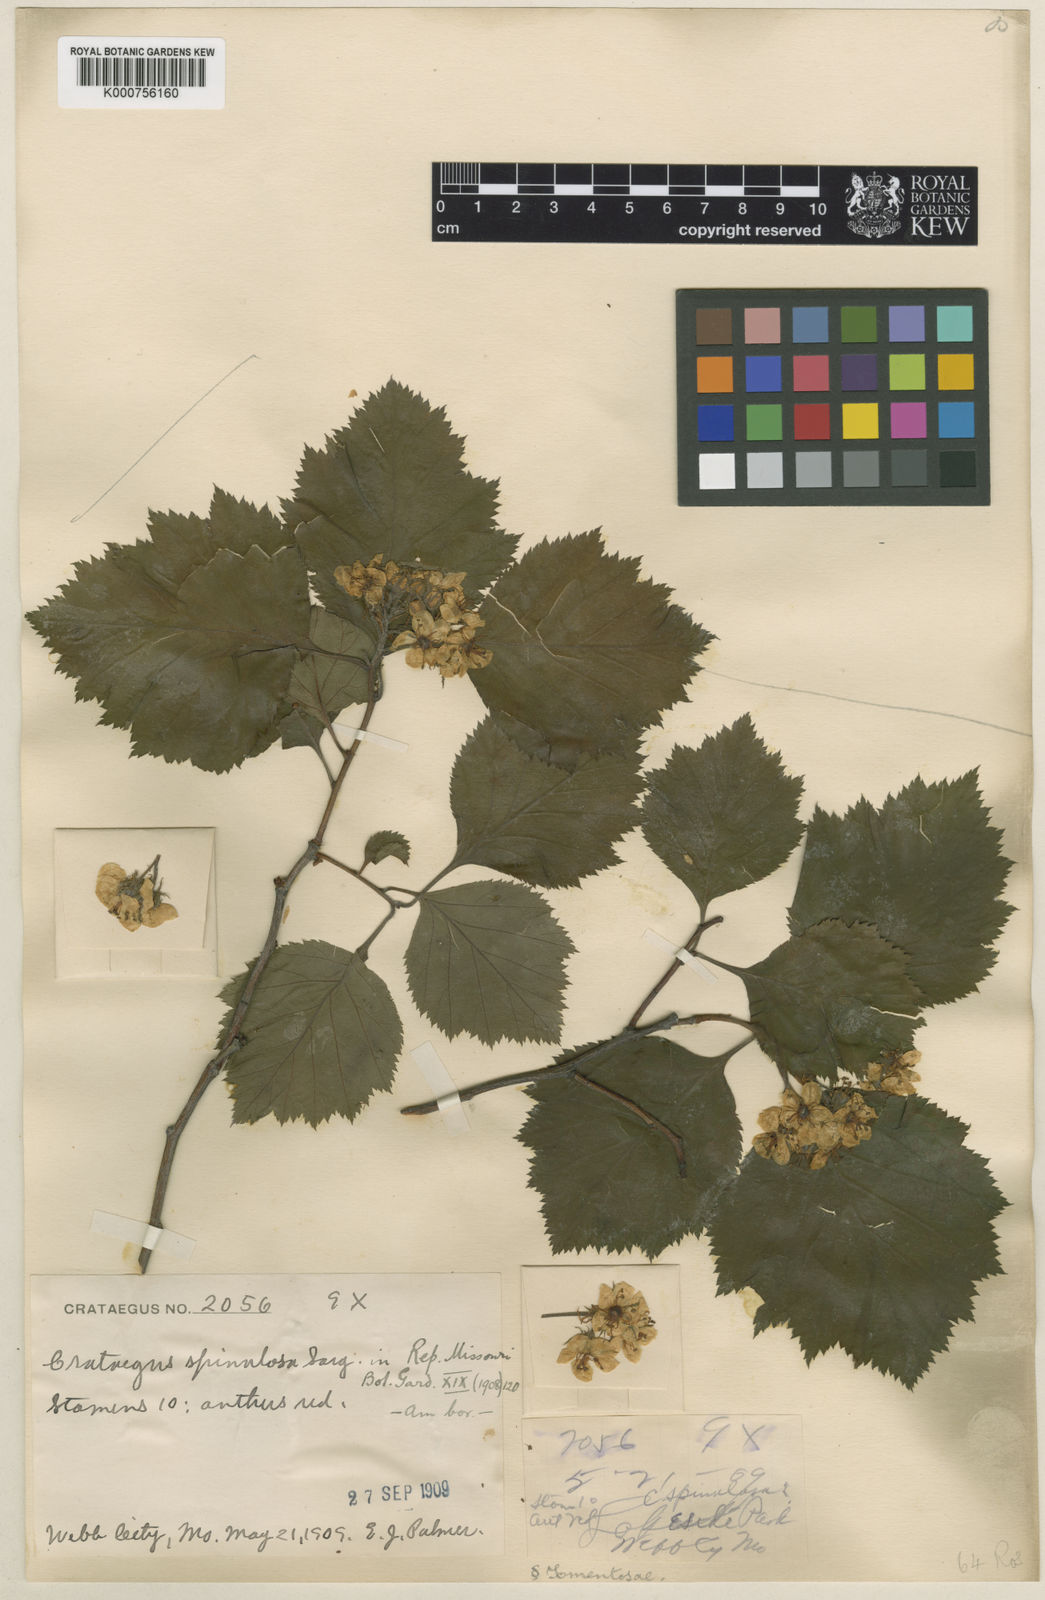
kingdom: Plantae
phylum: Tracheophyta
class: Magnoliopsida
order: Rosales
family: Rosaceae
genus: Crataegus
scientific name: Crataegus spinulosa
